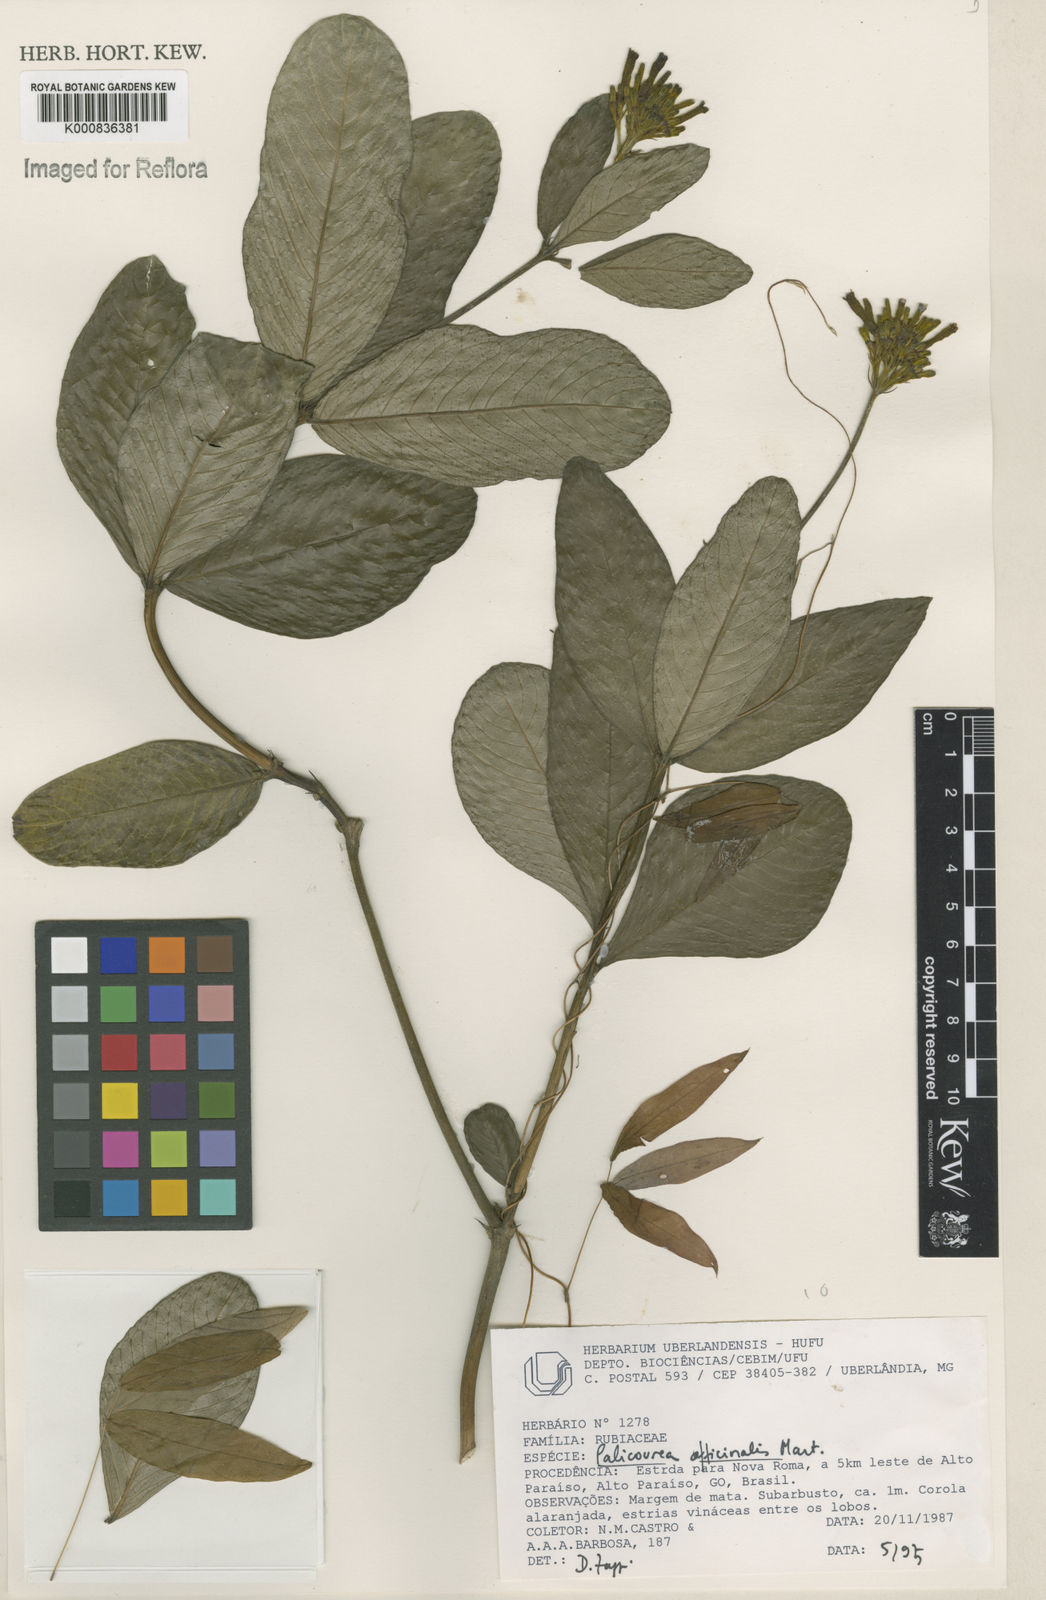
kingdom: Plantae
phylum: Tracheophyta
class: Magnoliopsida
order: Gentianales
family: Rubiaceae
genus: Palicourea
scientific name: Palicourea officinalis
